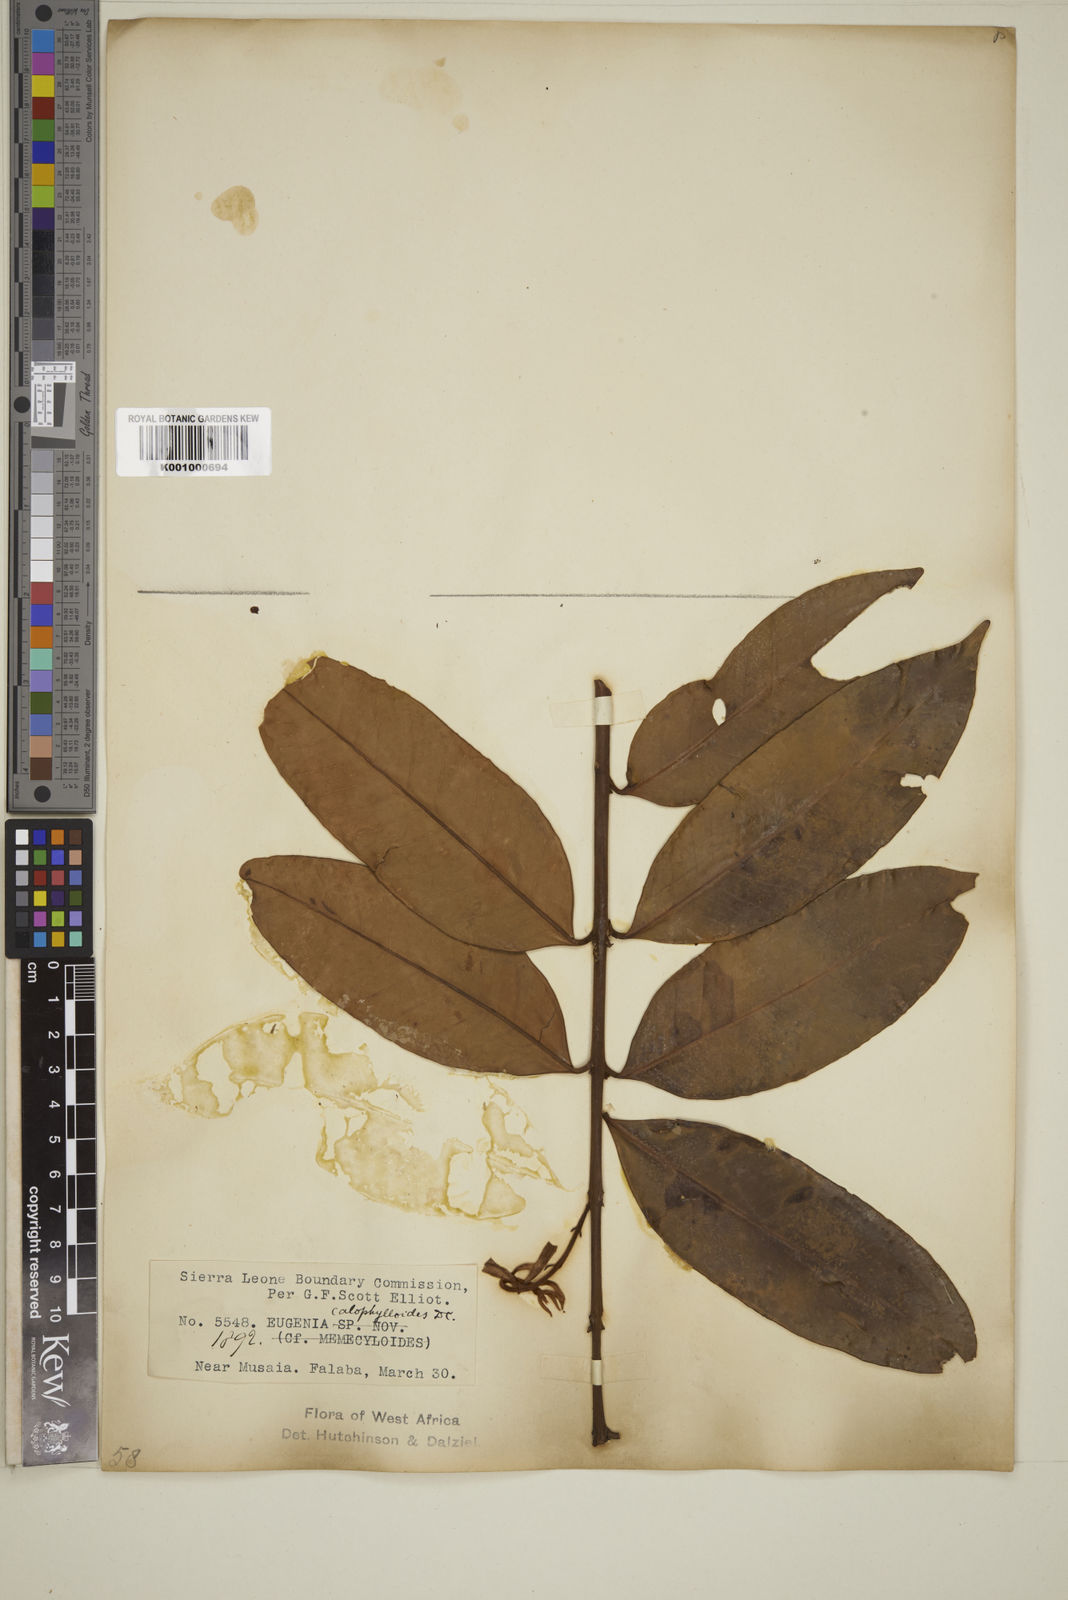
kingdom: Plantae
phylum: Tracheophyta
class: Magnoliopsida
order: Myrtales
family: Myrtaceae
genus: Eugenia
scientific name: Eugenia calophylloides
